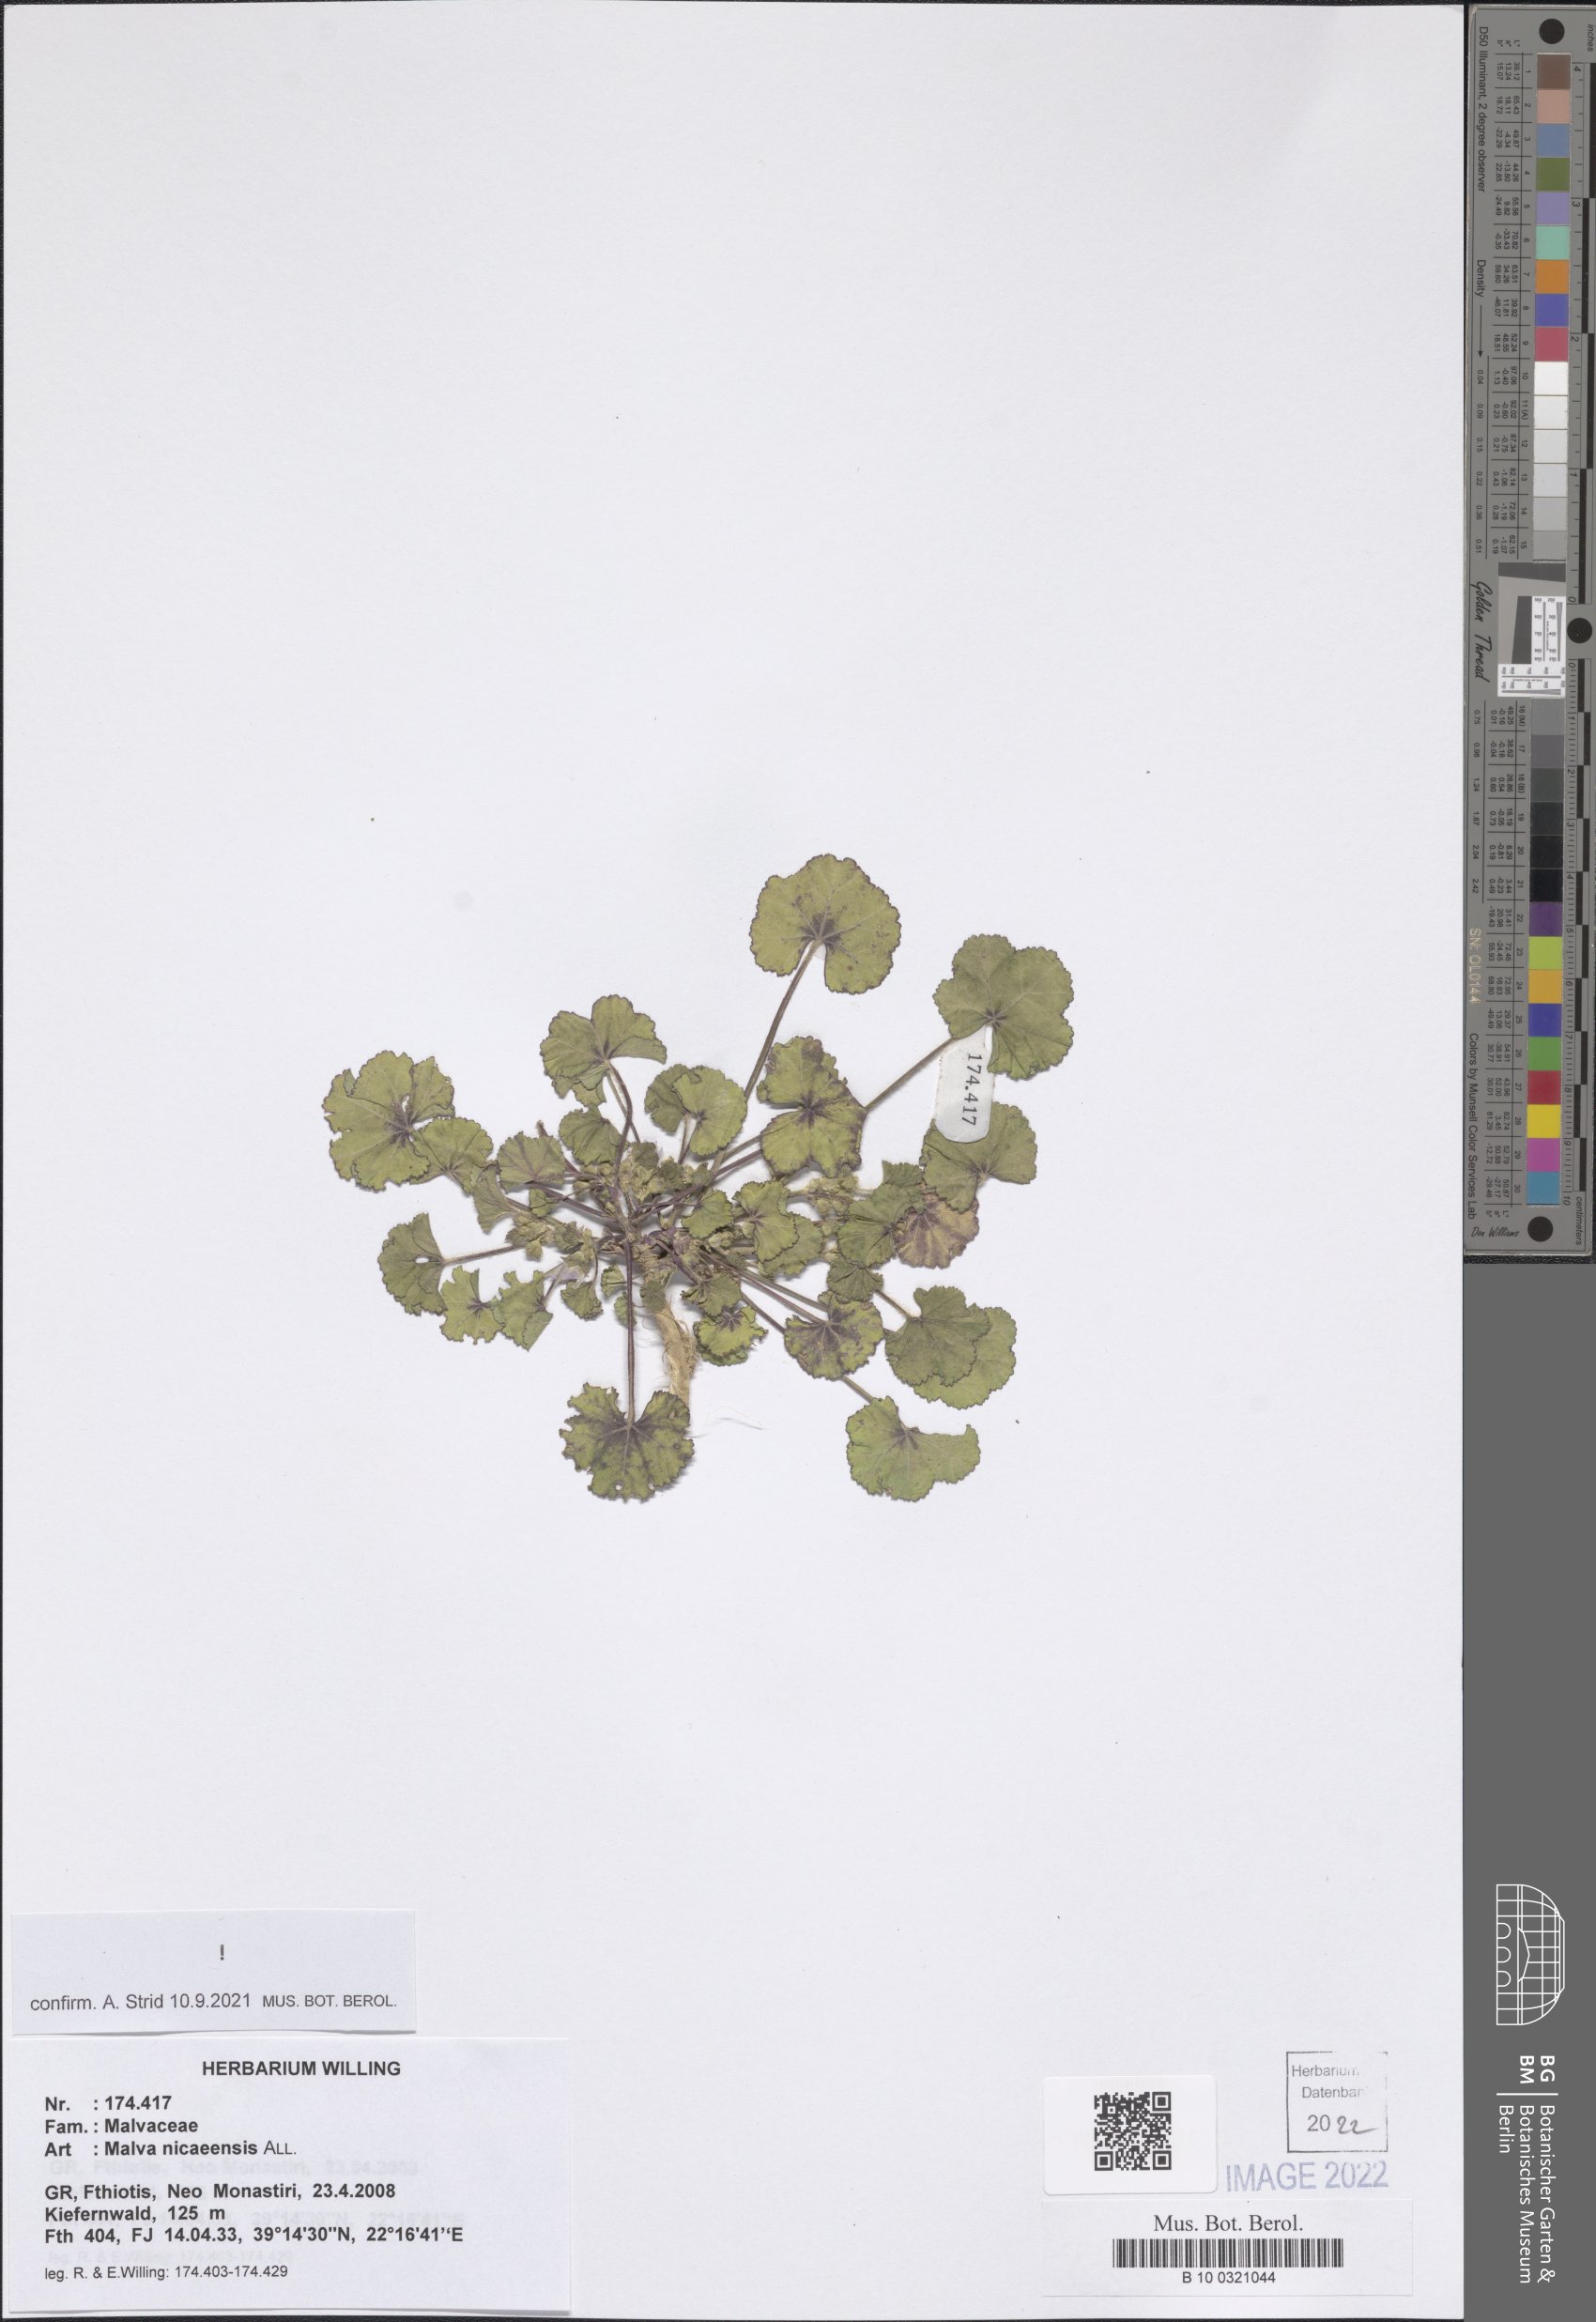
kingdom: Plantae
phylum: Tracheophyta
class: Magnoliopsida
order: Malvales
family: Malvaceae
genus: Malva
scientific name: Malva nicaeensis
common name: French mallow
